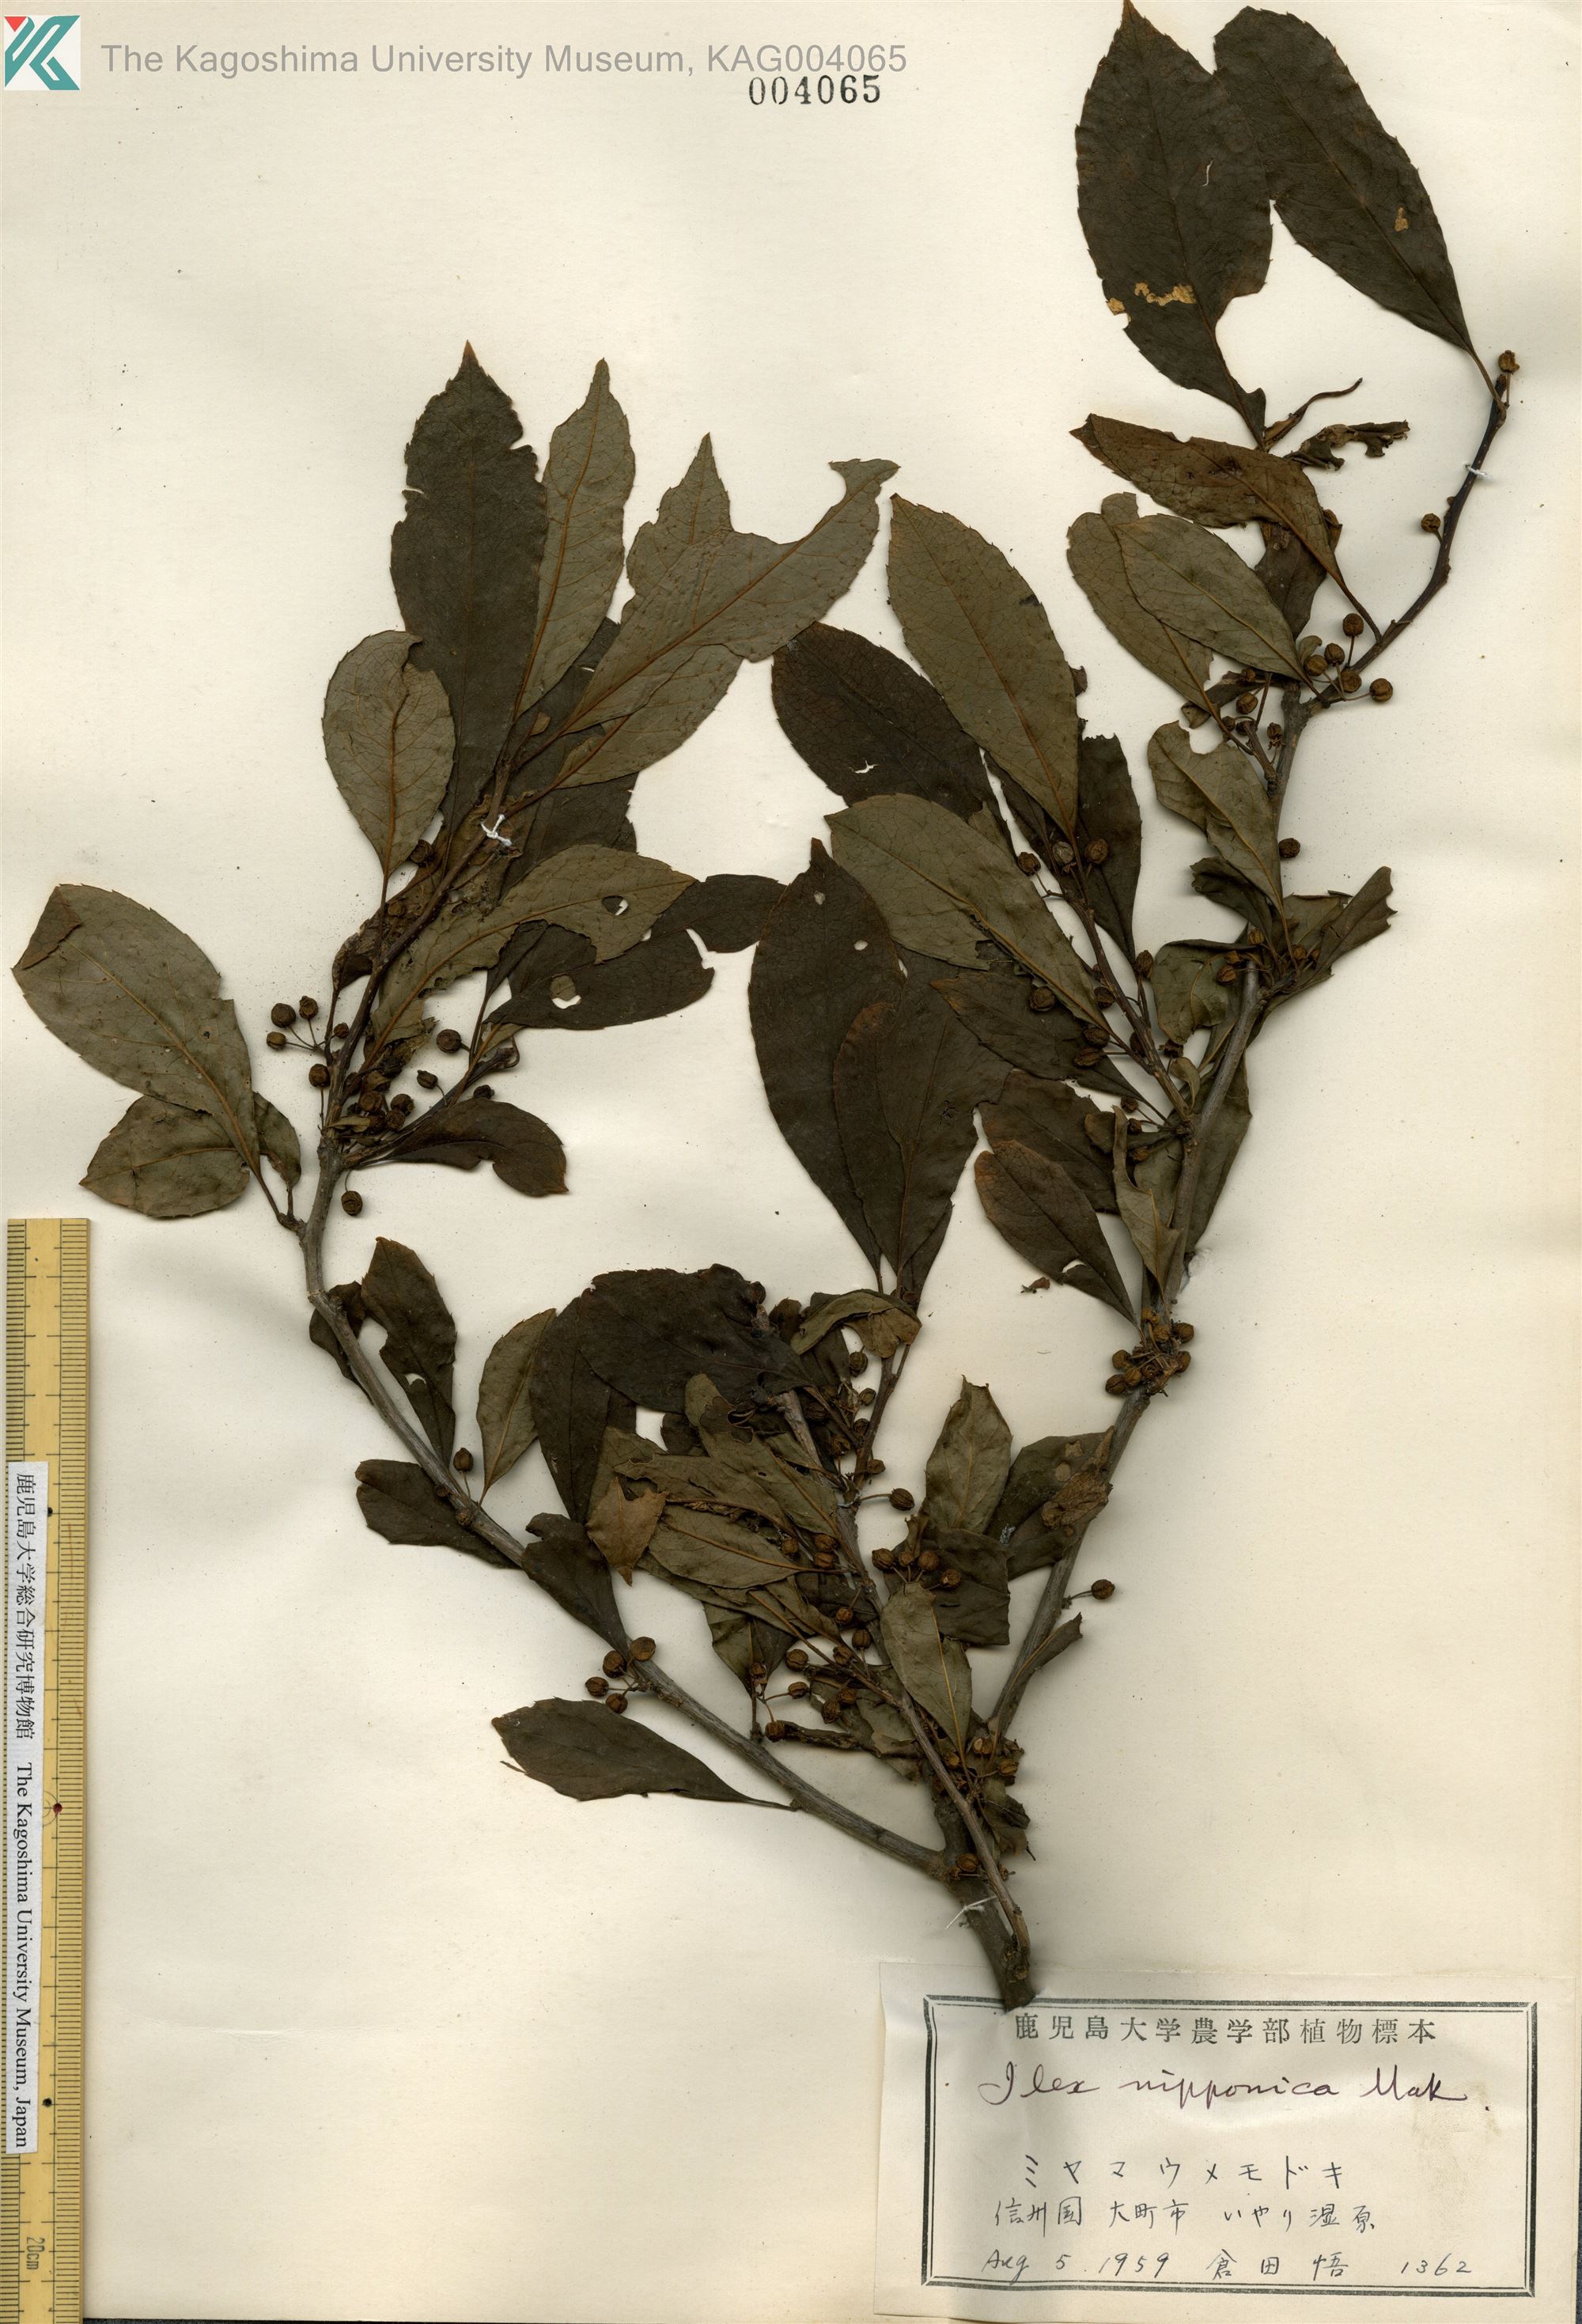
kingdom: Plantae
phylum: Tracheophyta
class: Magnoliopsida
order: Aquifoliales
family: Aquifoliaceae
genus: Ilex
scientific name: Ilex nipponica
